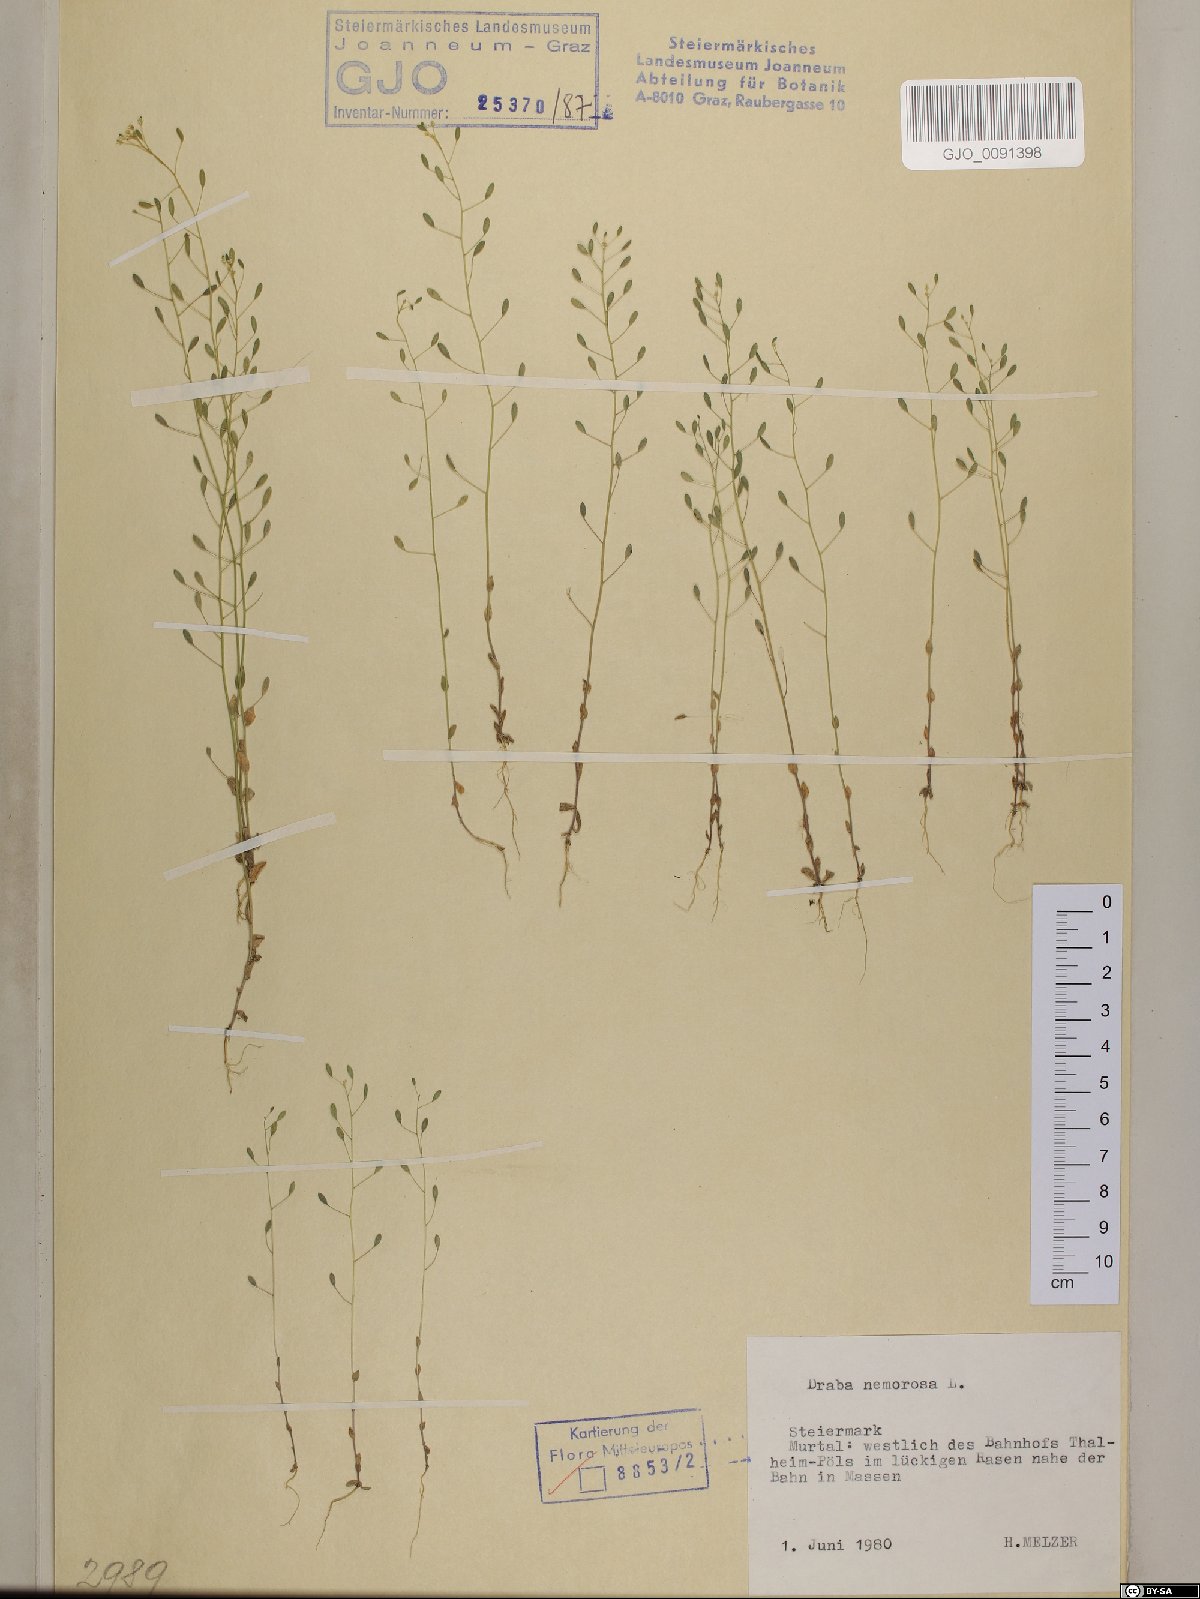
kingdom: Plantae
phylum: Tracheophyta
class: Magnoliopsida
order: Brassicales
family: Brassicaceae
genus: Draba
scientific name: Draba nemorosa
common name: Wood whitlow-grass
